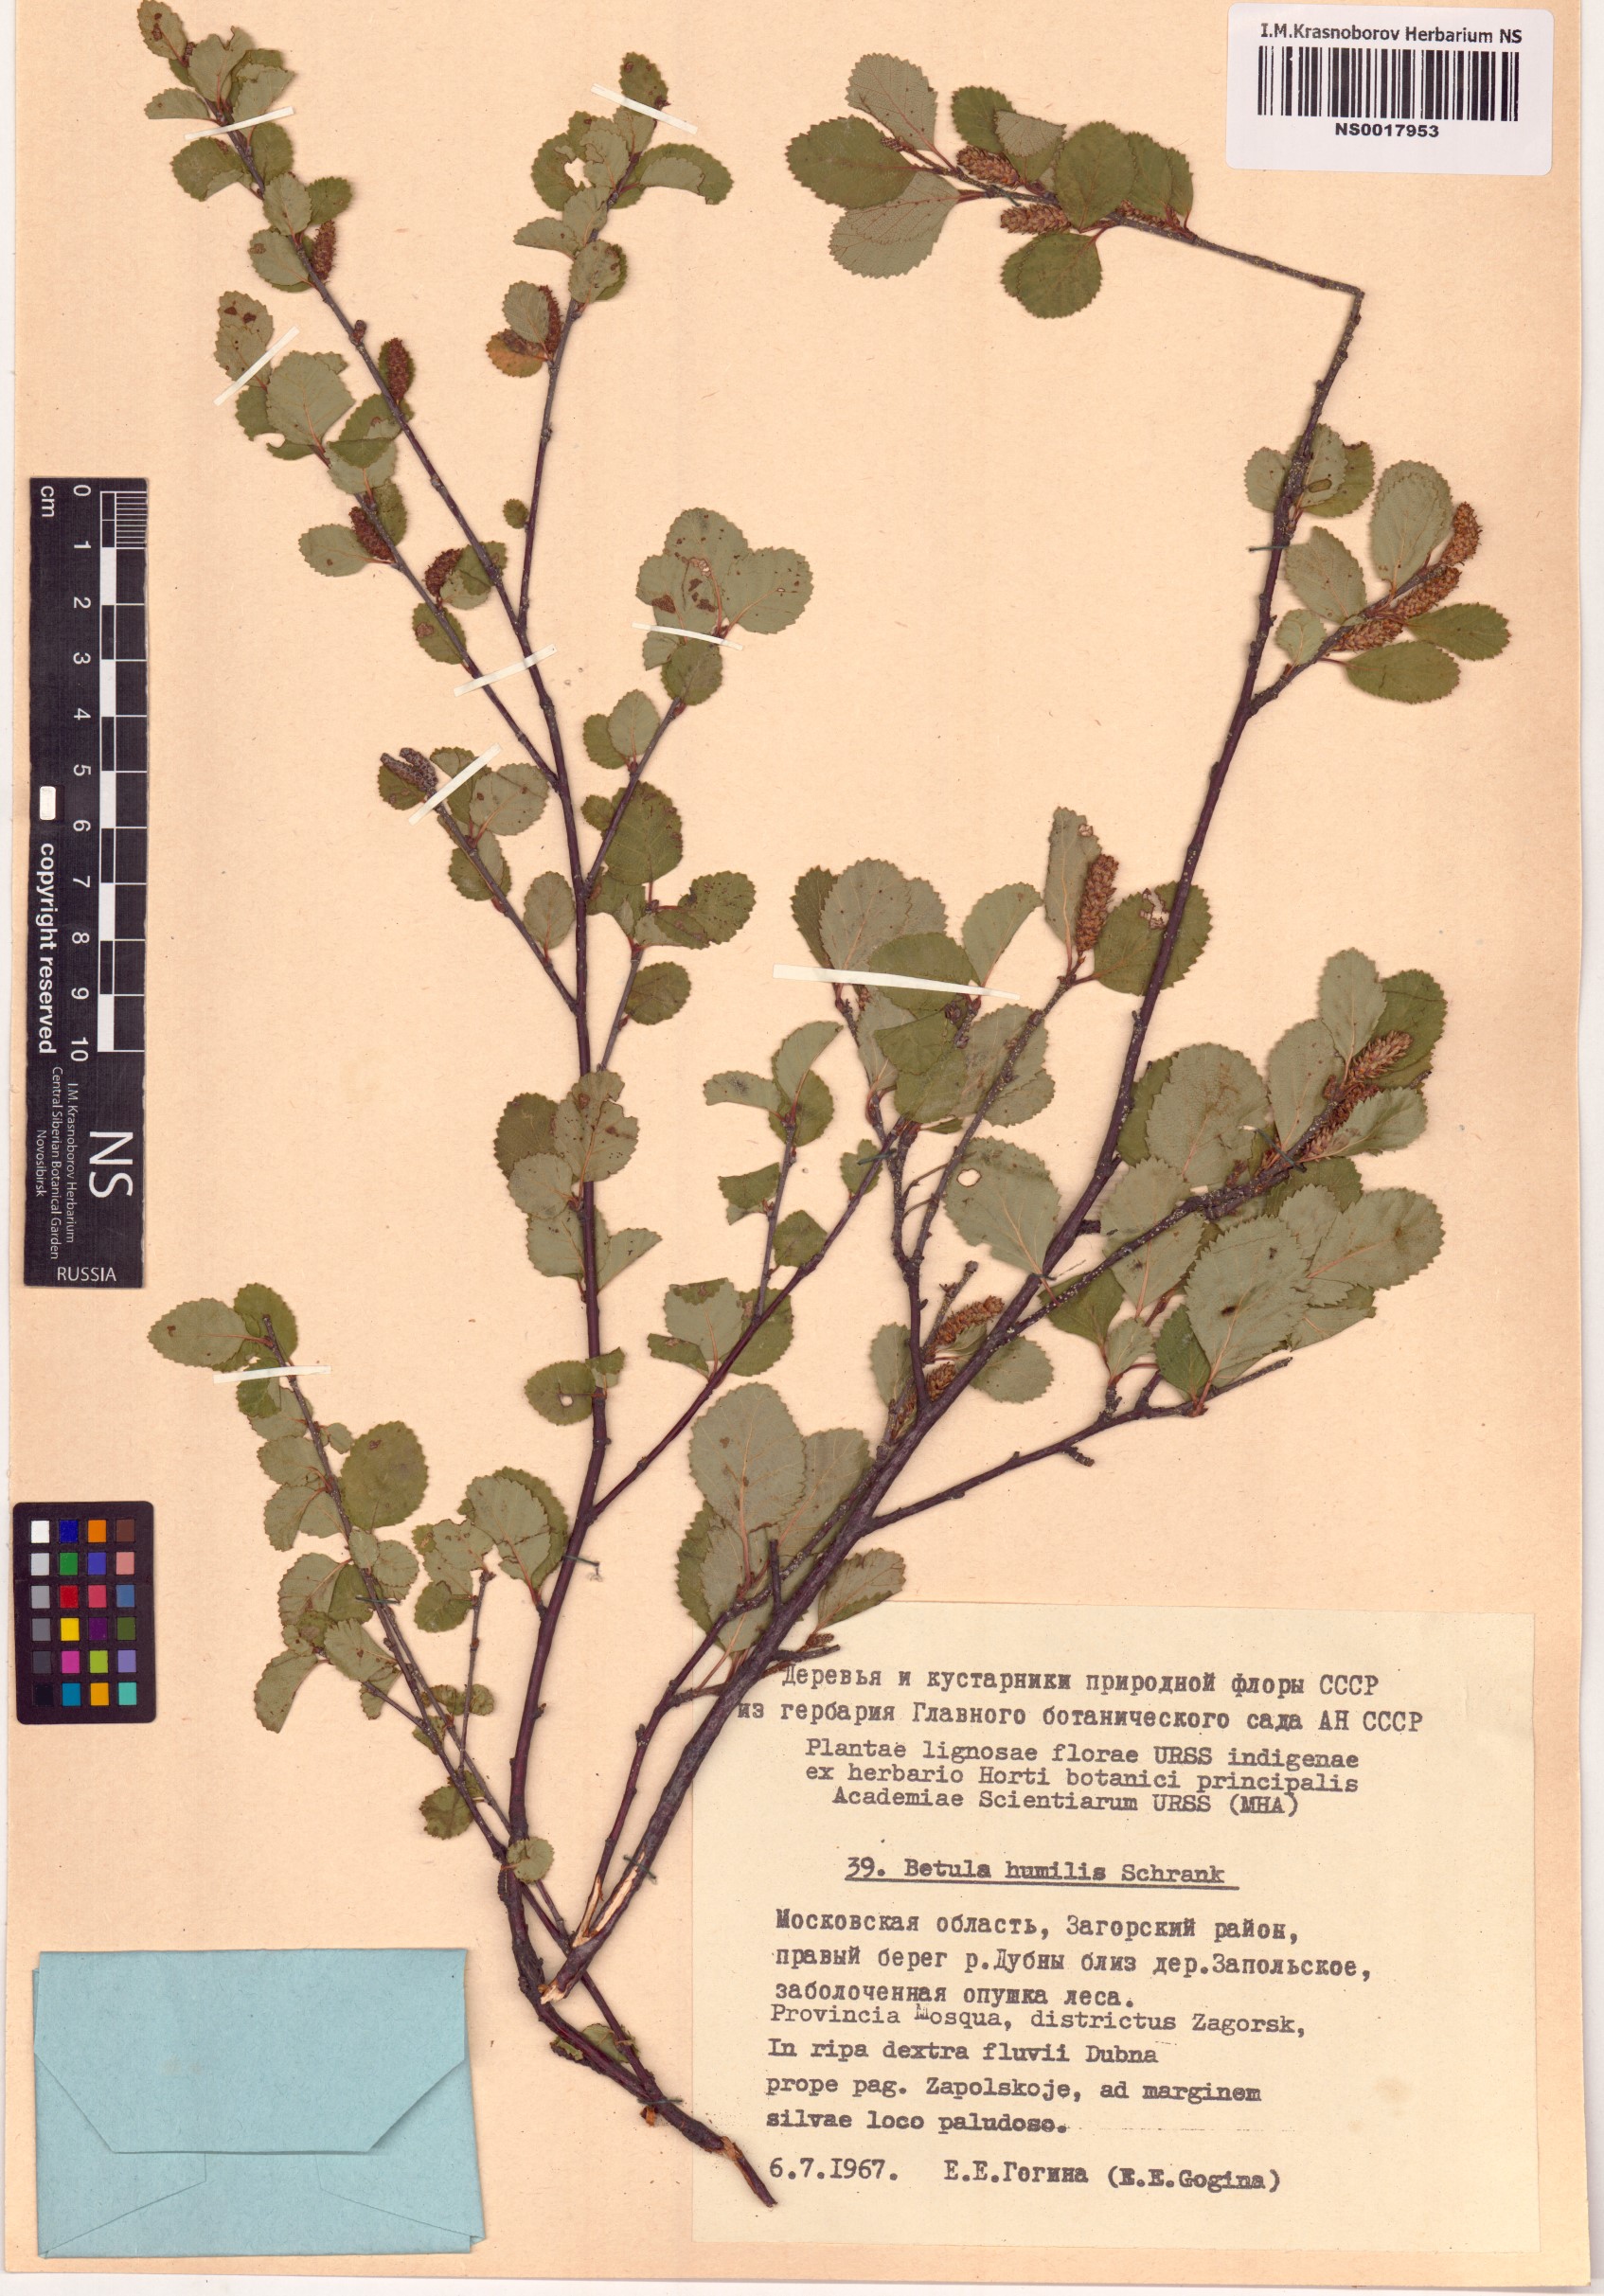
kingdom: Plantae
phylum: Tracheophyta
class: Magnoliopsida
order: Fagales
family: Betulaceae
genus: Betula
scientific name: Betula humilis
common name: Shrubby birch
